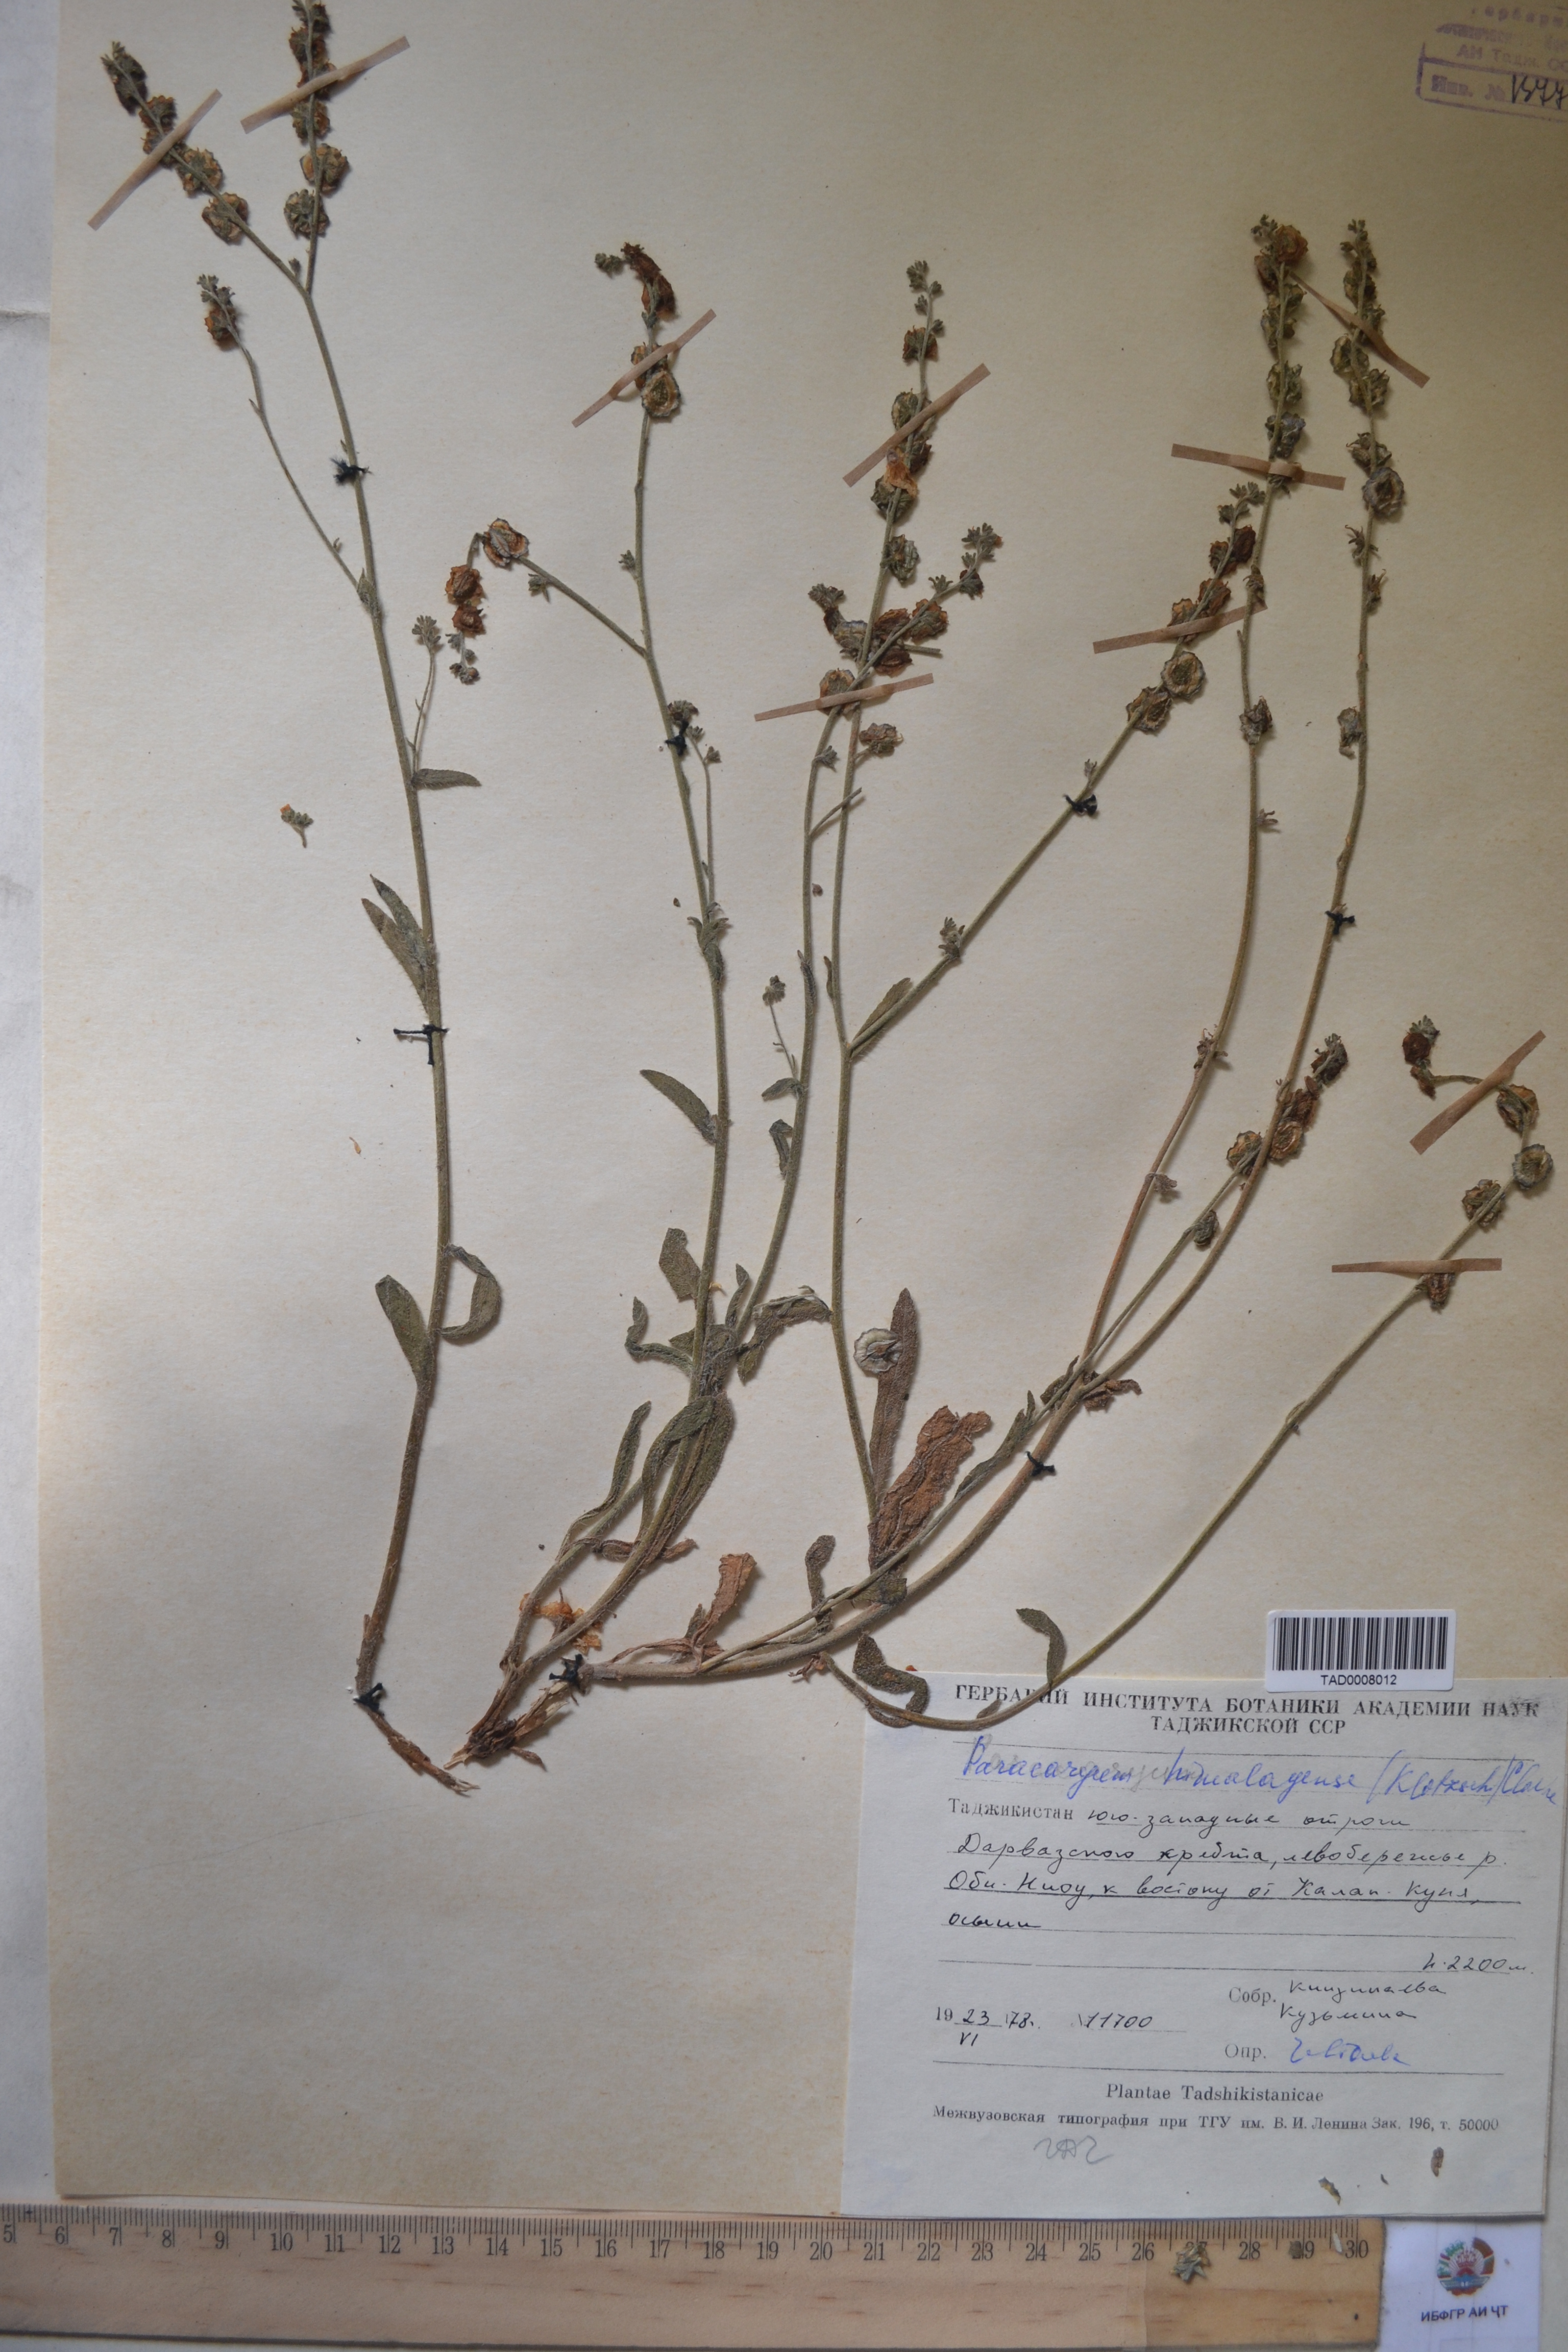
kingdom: Plantae
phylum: Tracheophyta
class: Magnoliopsida
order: Boraginales
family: Boraginaceae
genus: Paracaryum
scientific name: Paracaryum himalayense
